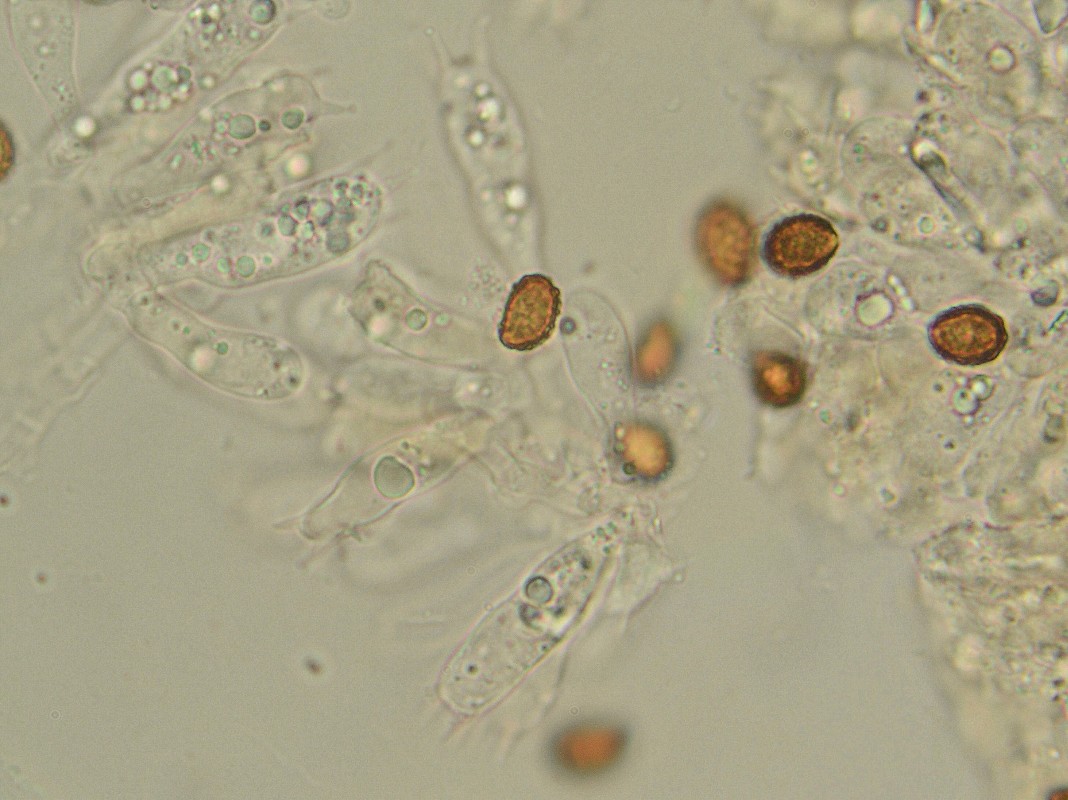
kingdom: Fungi
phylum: Basidiomycota
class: Agaricomycetes
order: Agaricales
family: Cortinariaceae
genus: Cortinarius
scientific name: Cortinarius vernus
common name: sommer-slørhat
